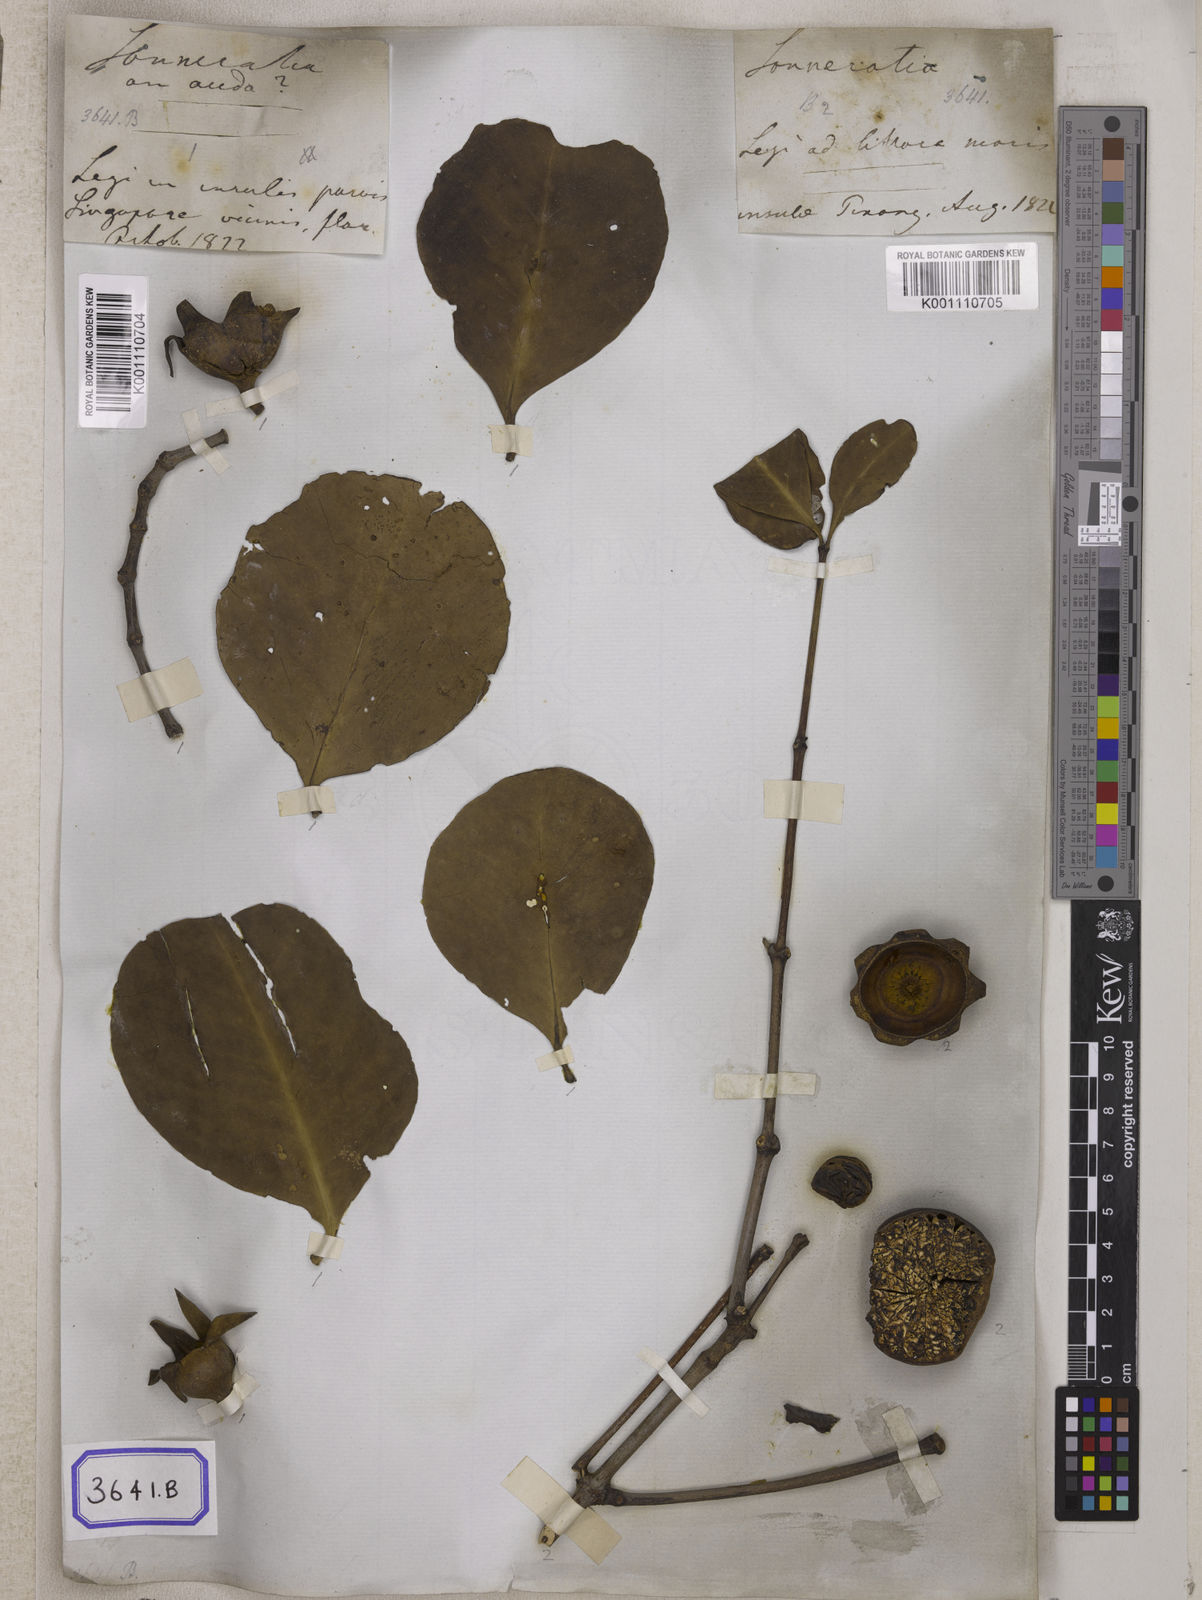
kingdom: Plantae
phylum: Tracheophyta
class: Magnoliopsida
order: Myrtales
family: Lythraceae
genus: Sonneratia
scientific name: Sonneratia caseolaris
